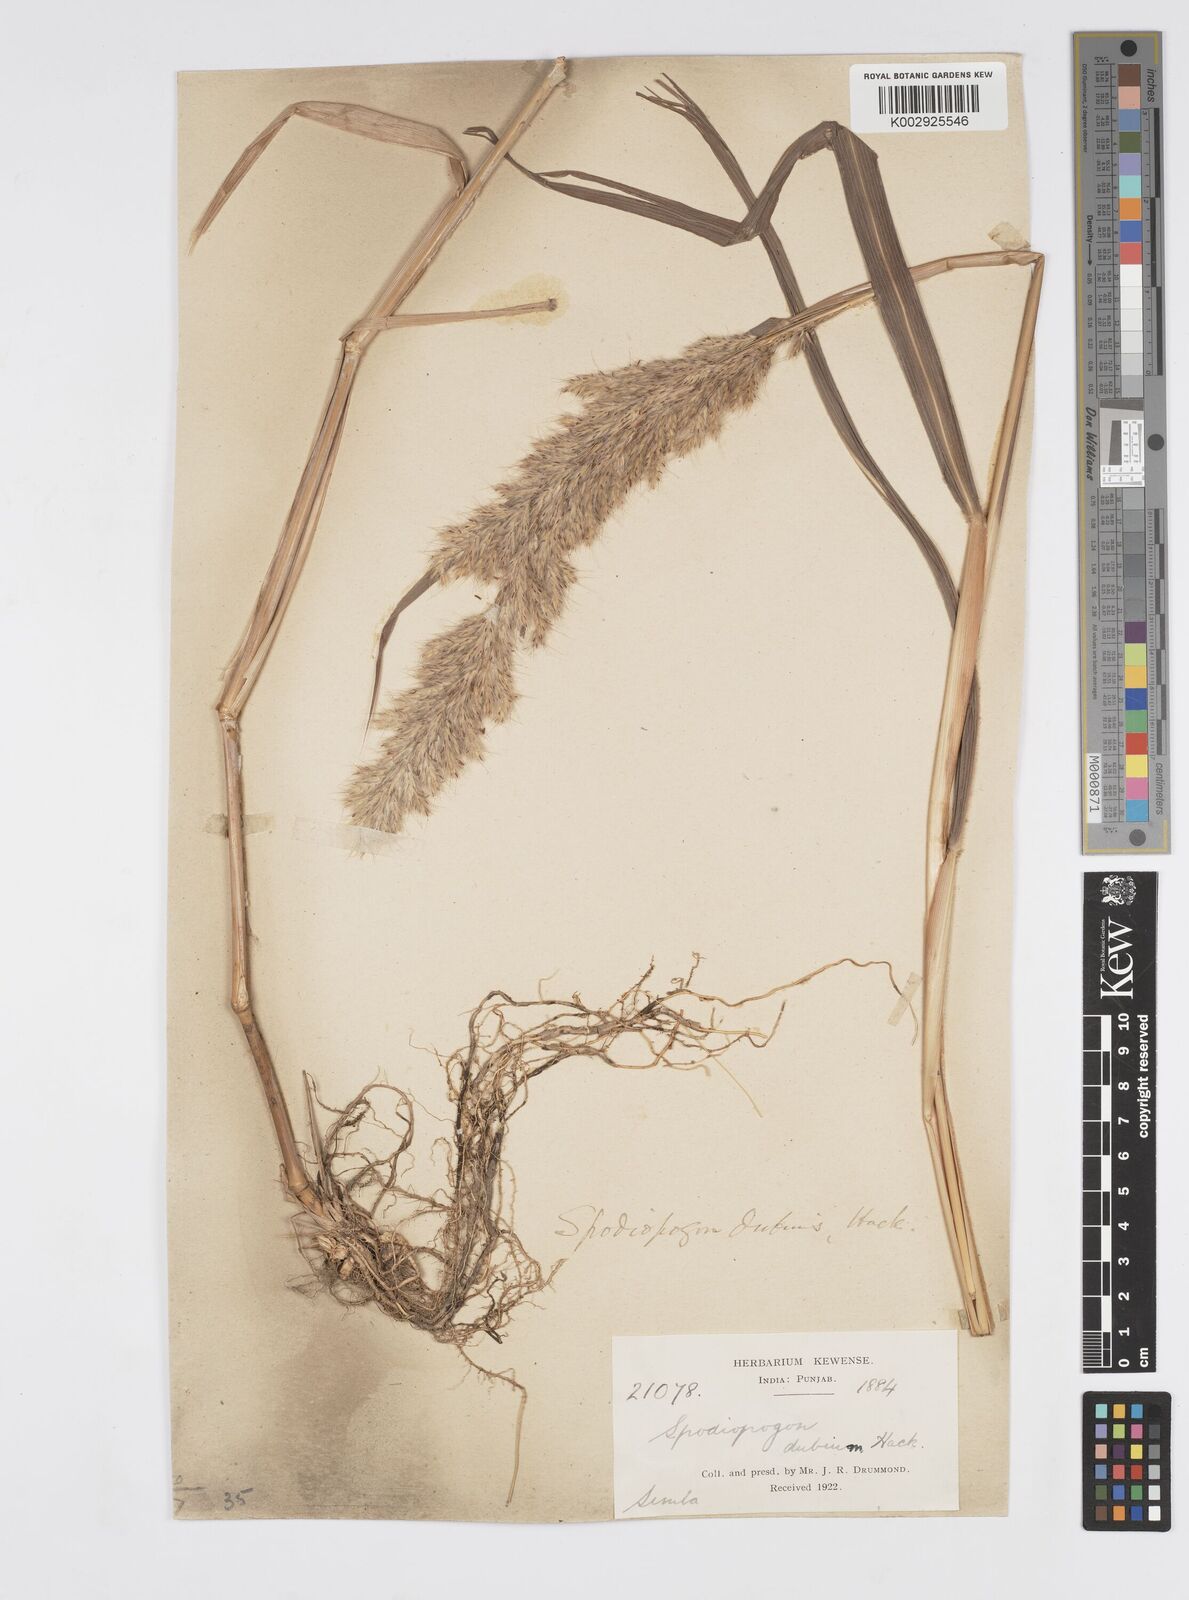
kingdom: Plantae
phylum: Tracheophyta
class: Liliopsida
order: Poales
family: Poaceae
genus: Spodiopogon
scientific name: Spodiopogon cotulifer
